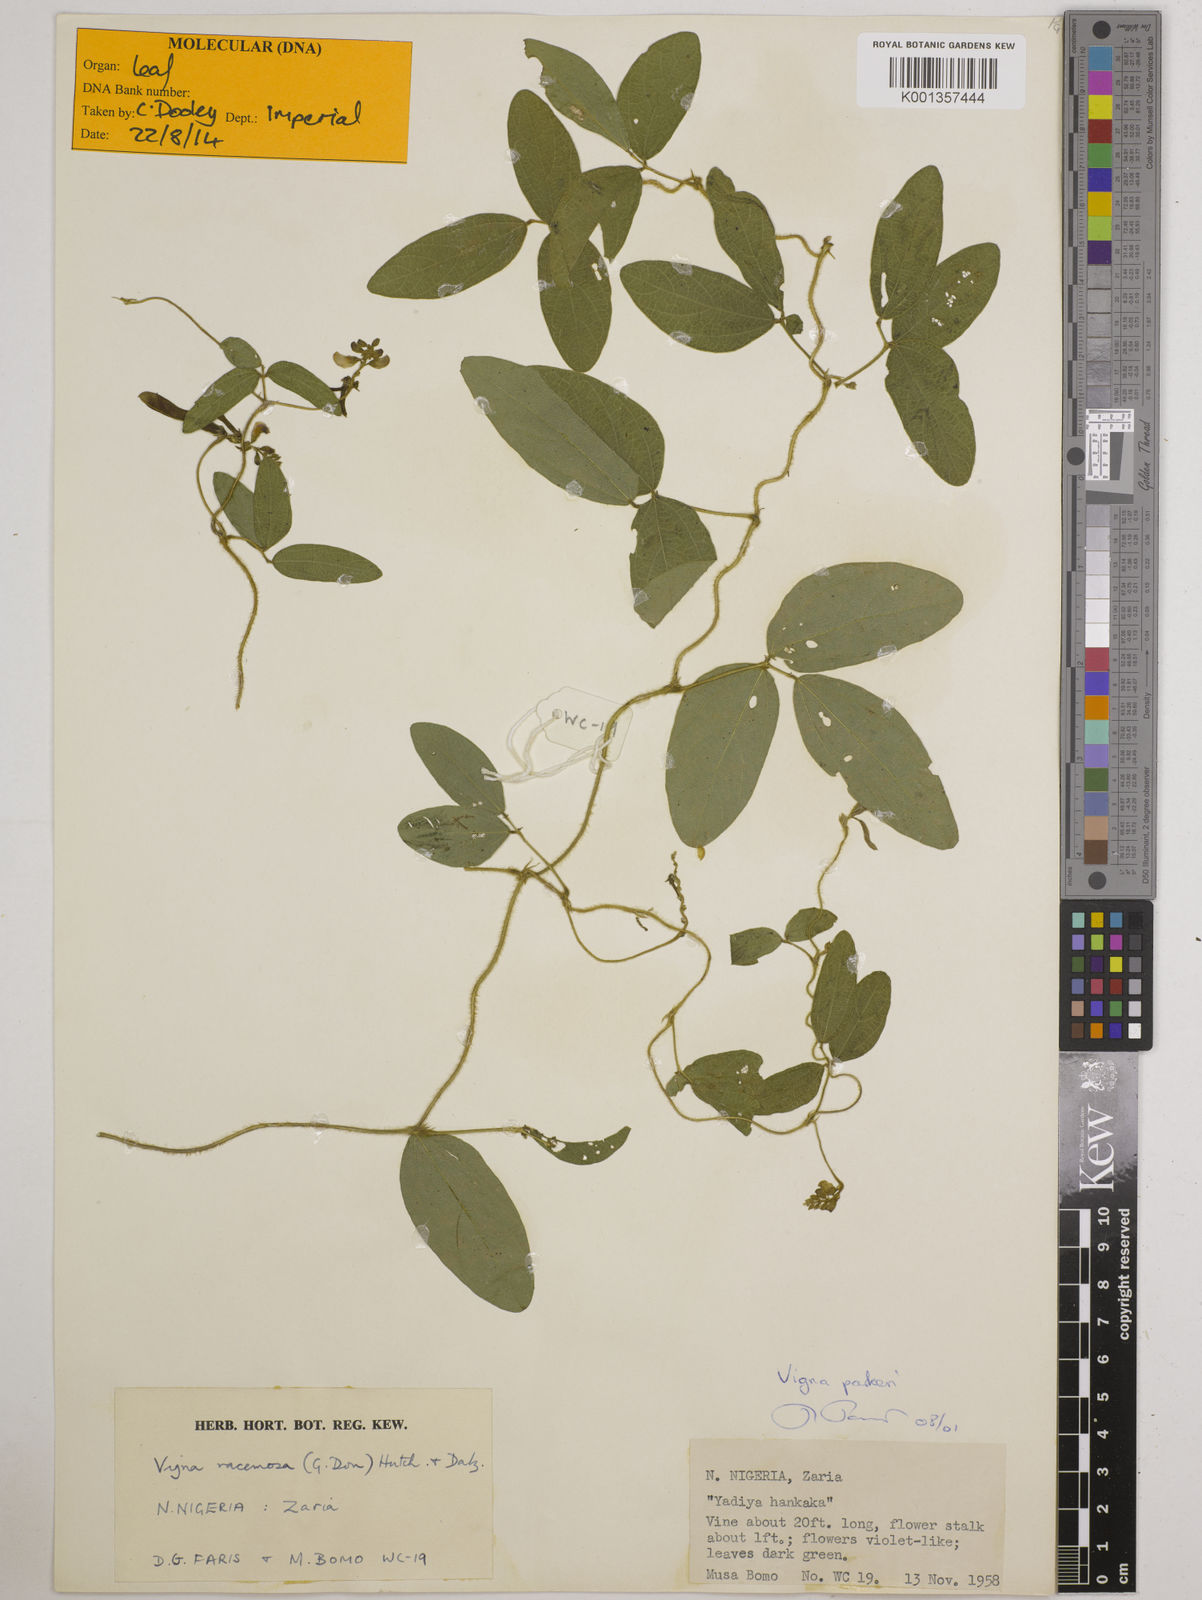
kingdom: Plantae
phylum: Tracheophyta
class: Magnoliopsida
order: Fabales
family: Fabaceae
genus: Vigna
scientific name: Vigna parkeri
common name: Creeping vigna
